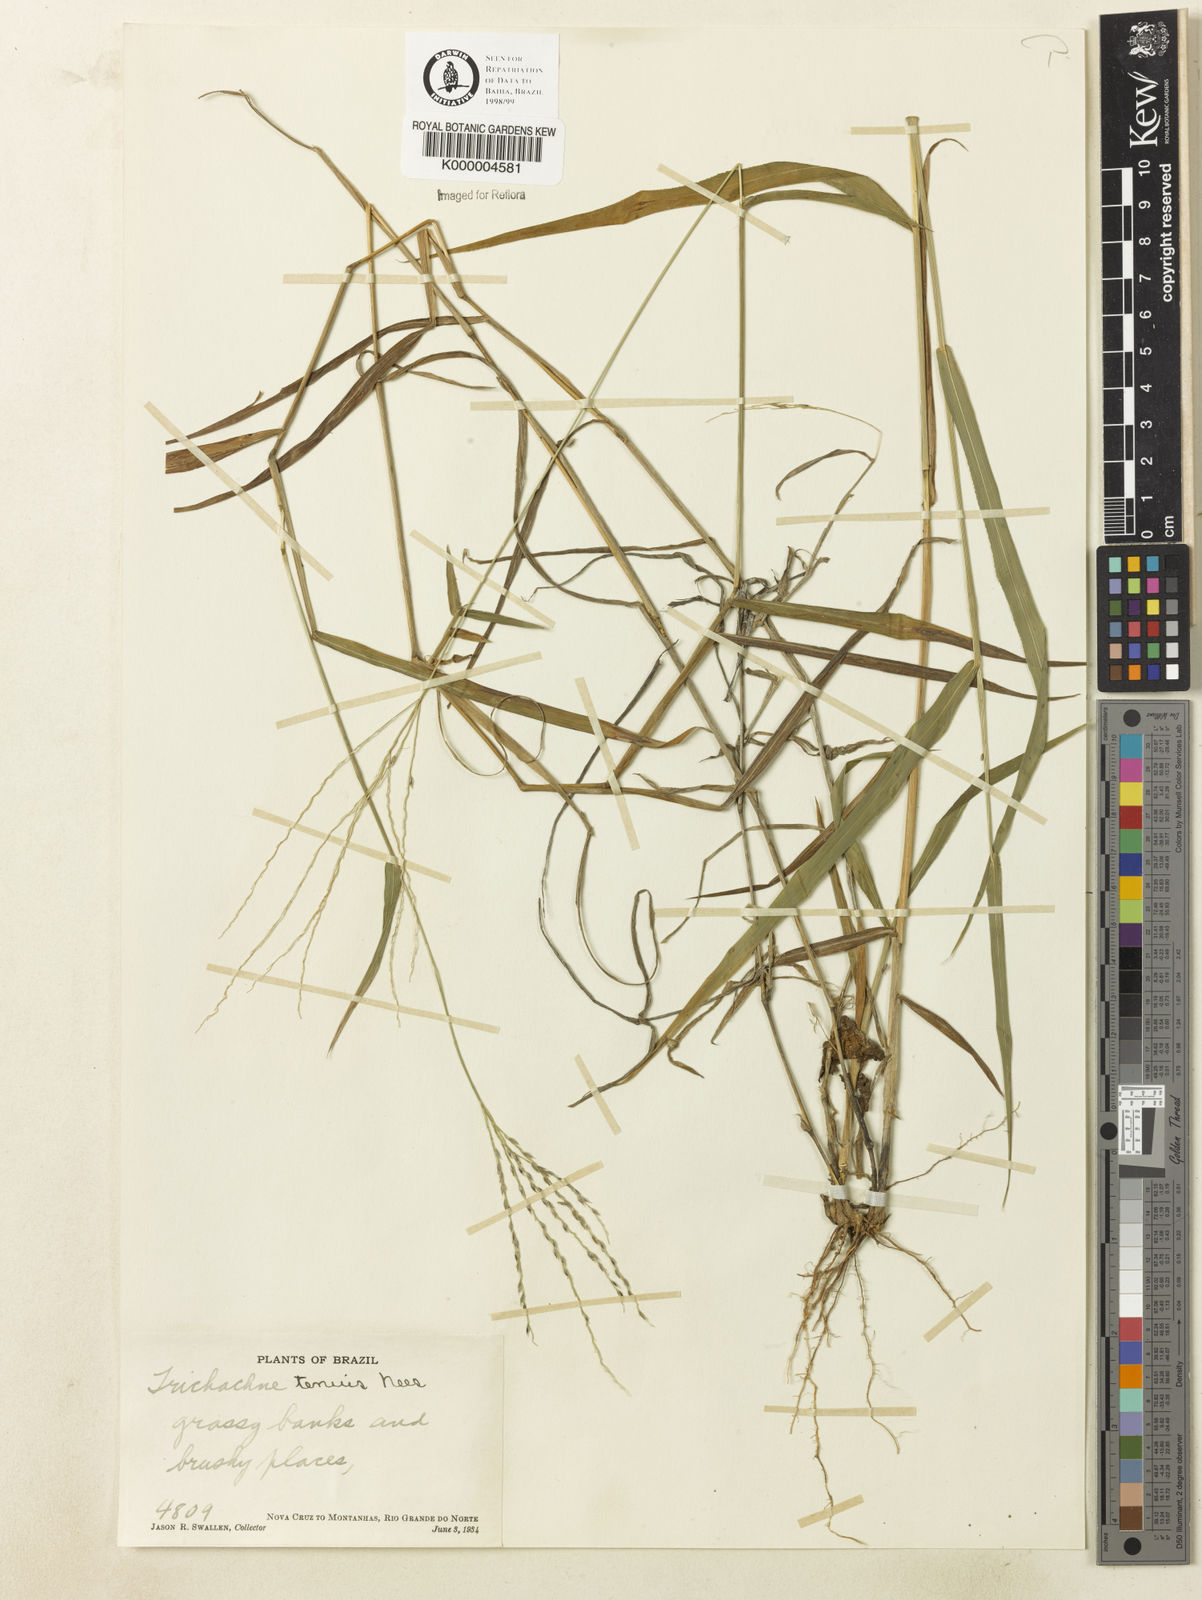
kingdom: Plantae
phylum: Tracheophyta
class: Liliopsida
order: Poales
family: Poaceae
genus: Digitaria
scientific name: Digitaria tenuis
